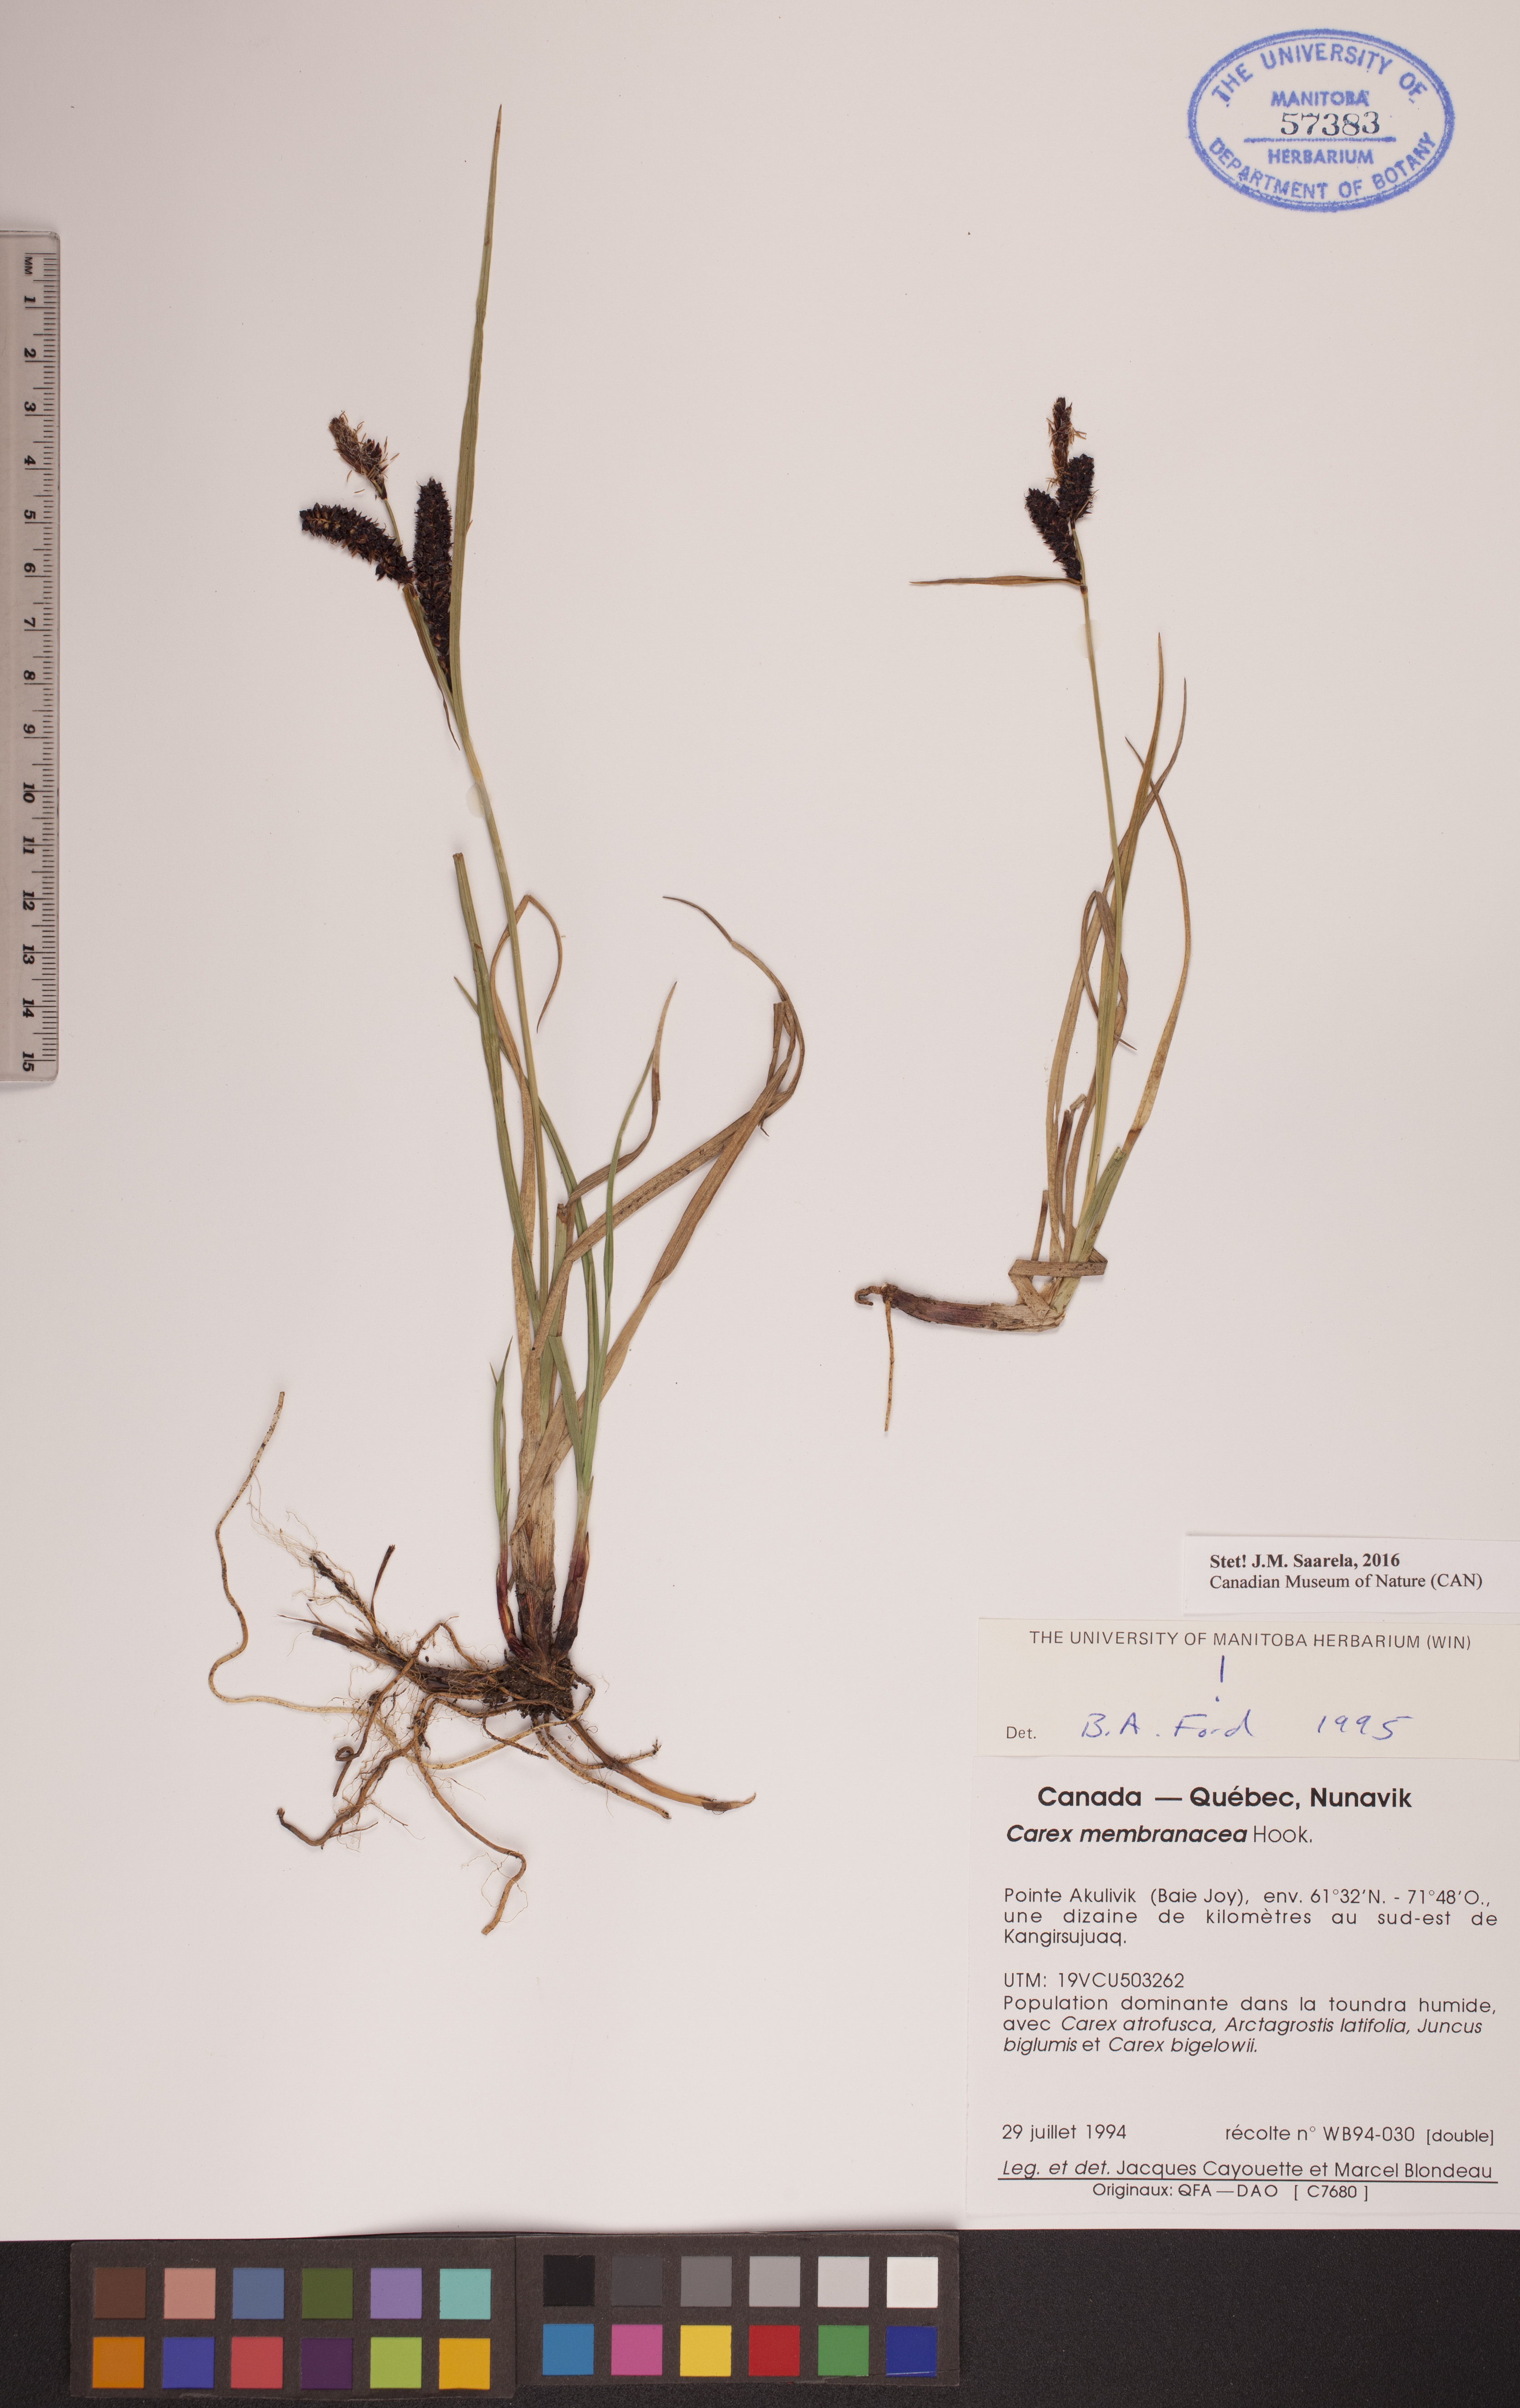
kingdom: Plantae
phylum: Tracheophyta
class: Liliopsida
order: Poales
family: Cyperaceae
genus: Carex
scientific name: Carex membranacea
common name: Fragile sedge
